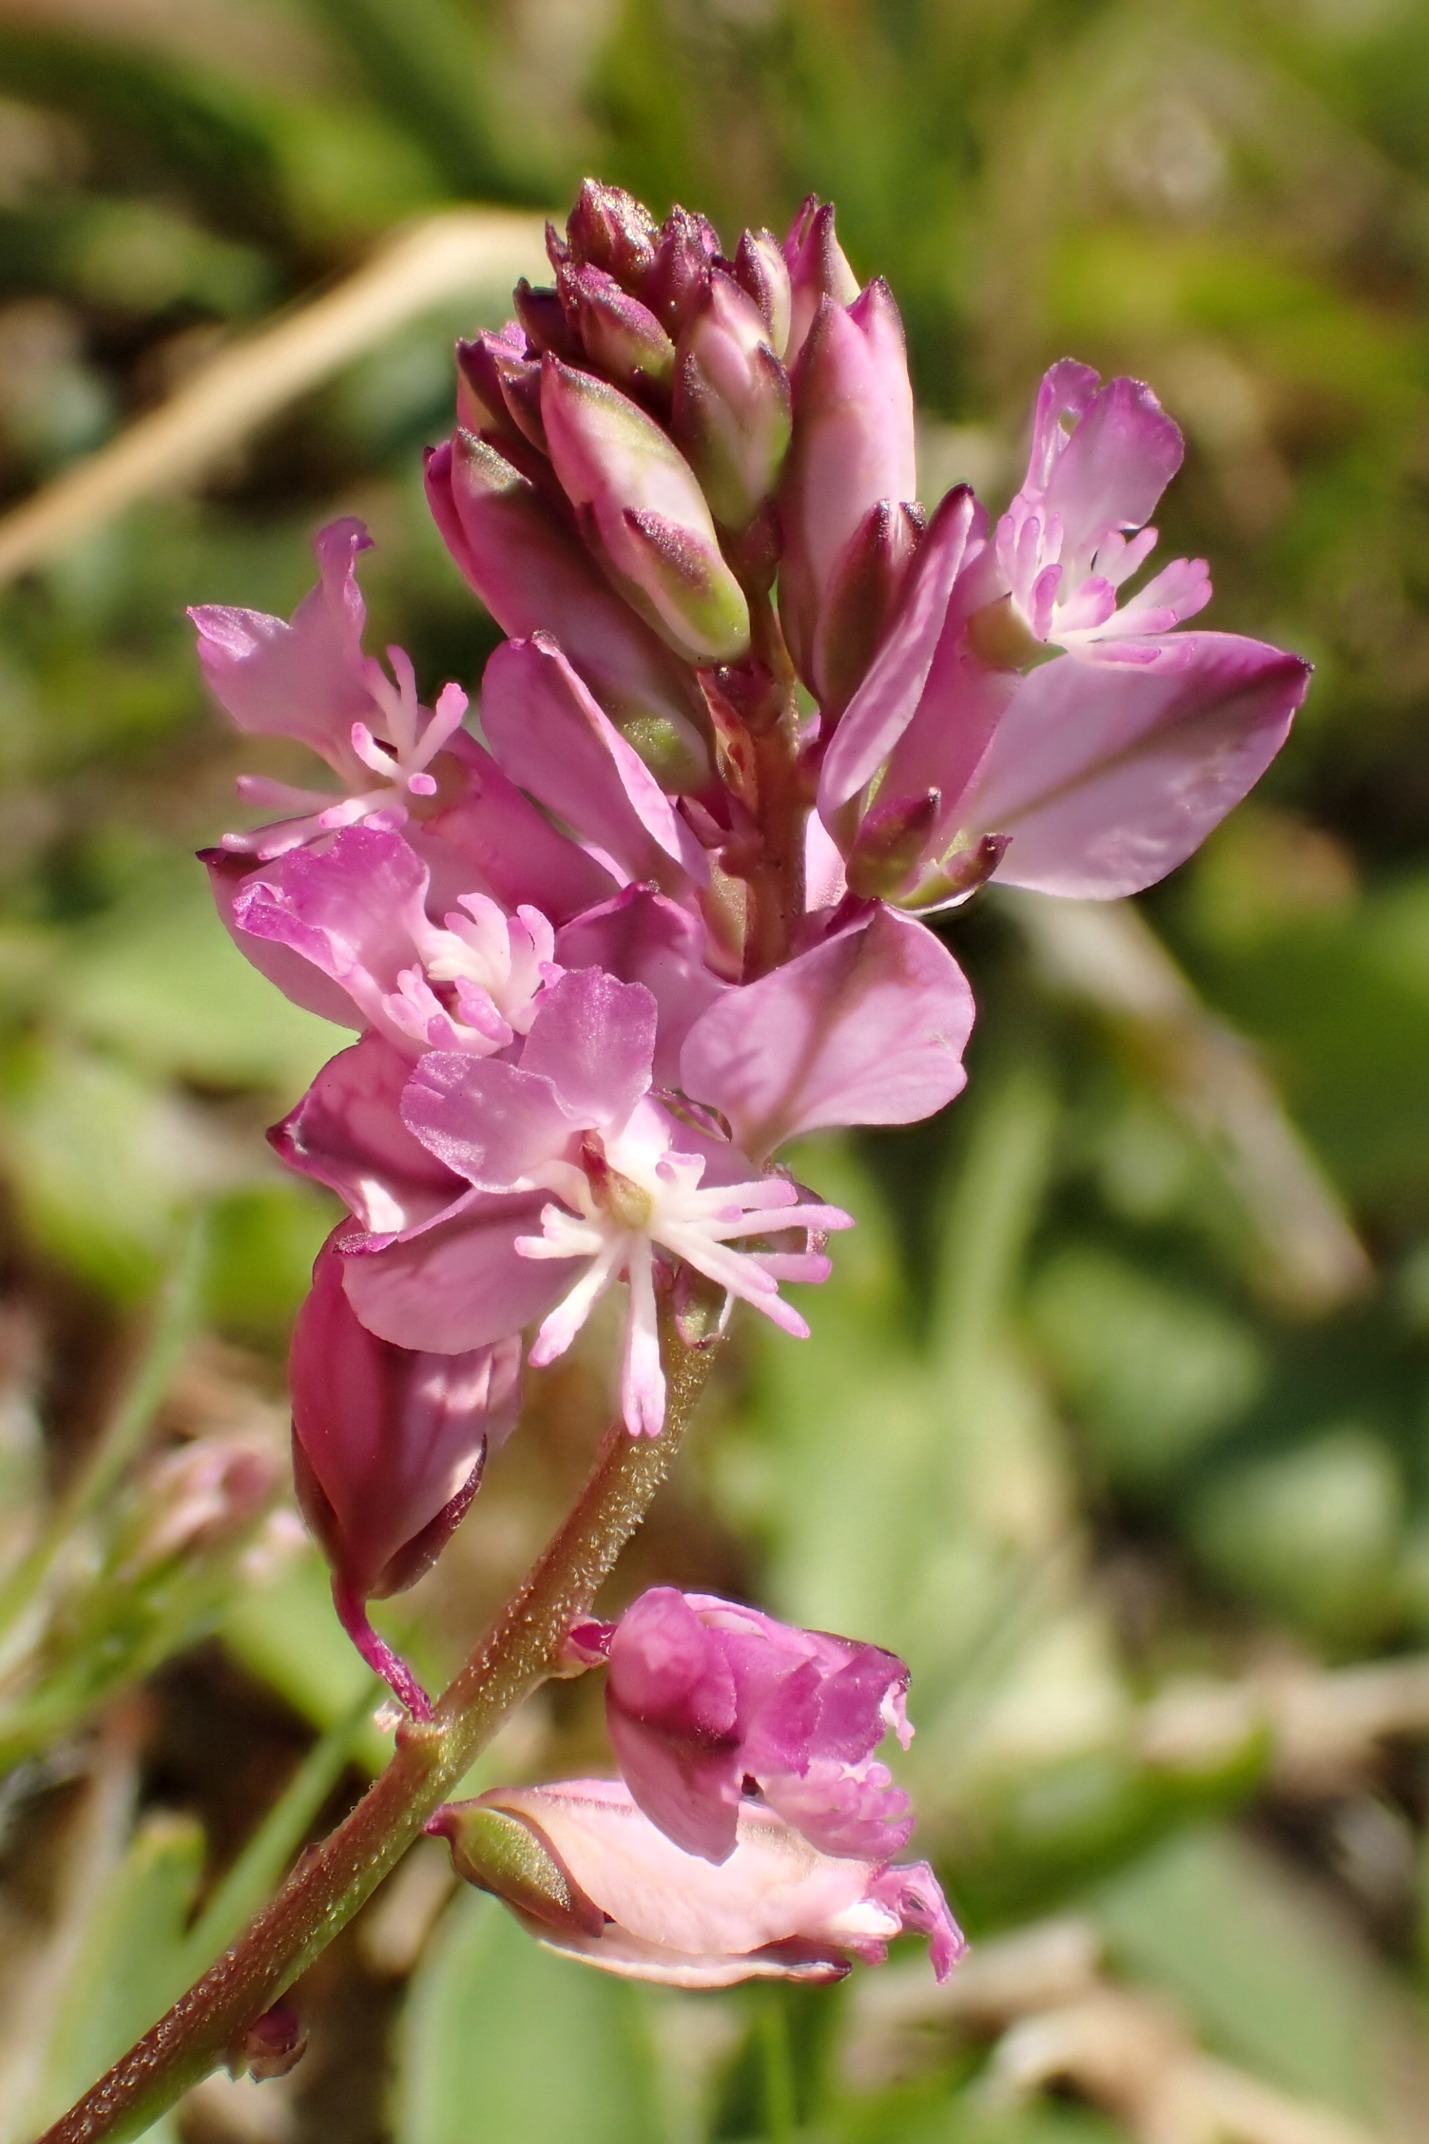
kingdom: Plantae
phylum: Tracheophyta
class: Magnoliopsida
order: Fabales
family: Polygalaceae
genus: Polygala
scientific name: Polygala vulgaris
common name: Almindelig mælkeurt
